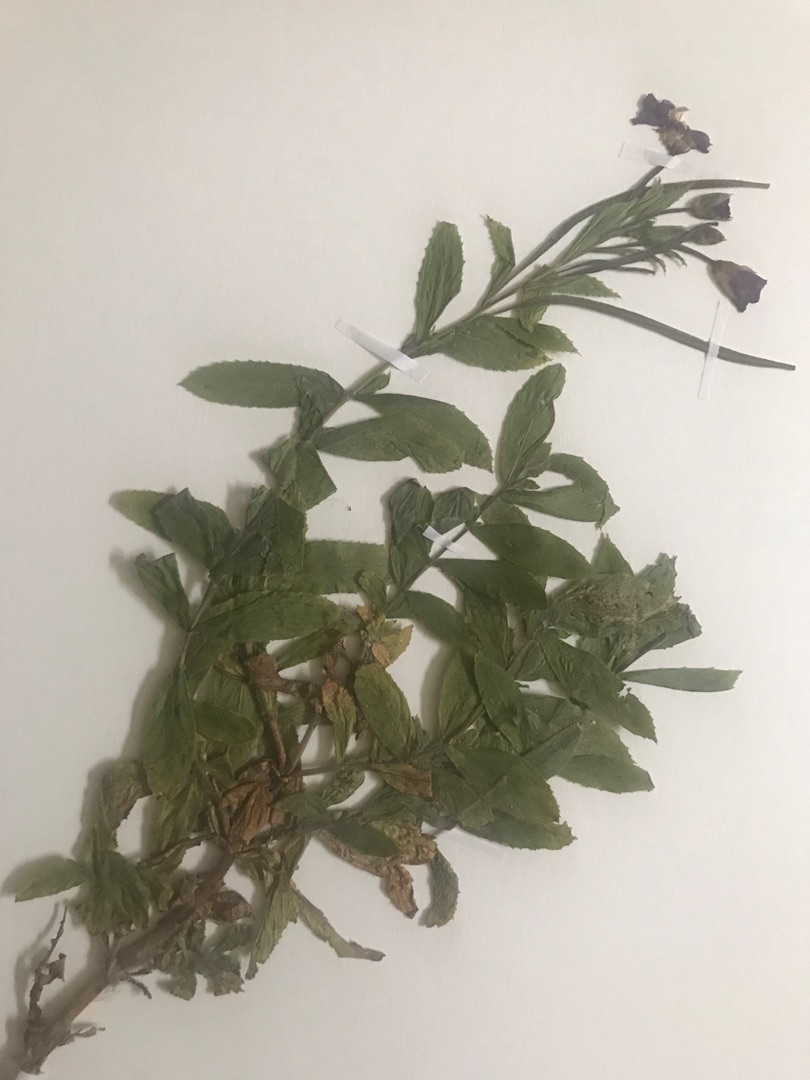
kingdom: Plantae
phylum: Tracheophyta
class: Magnoliopsida
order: Myrtales
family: Onagraceae
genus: Epilobium
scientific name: Epilobium hirsutum
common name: Lådden dueurt
